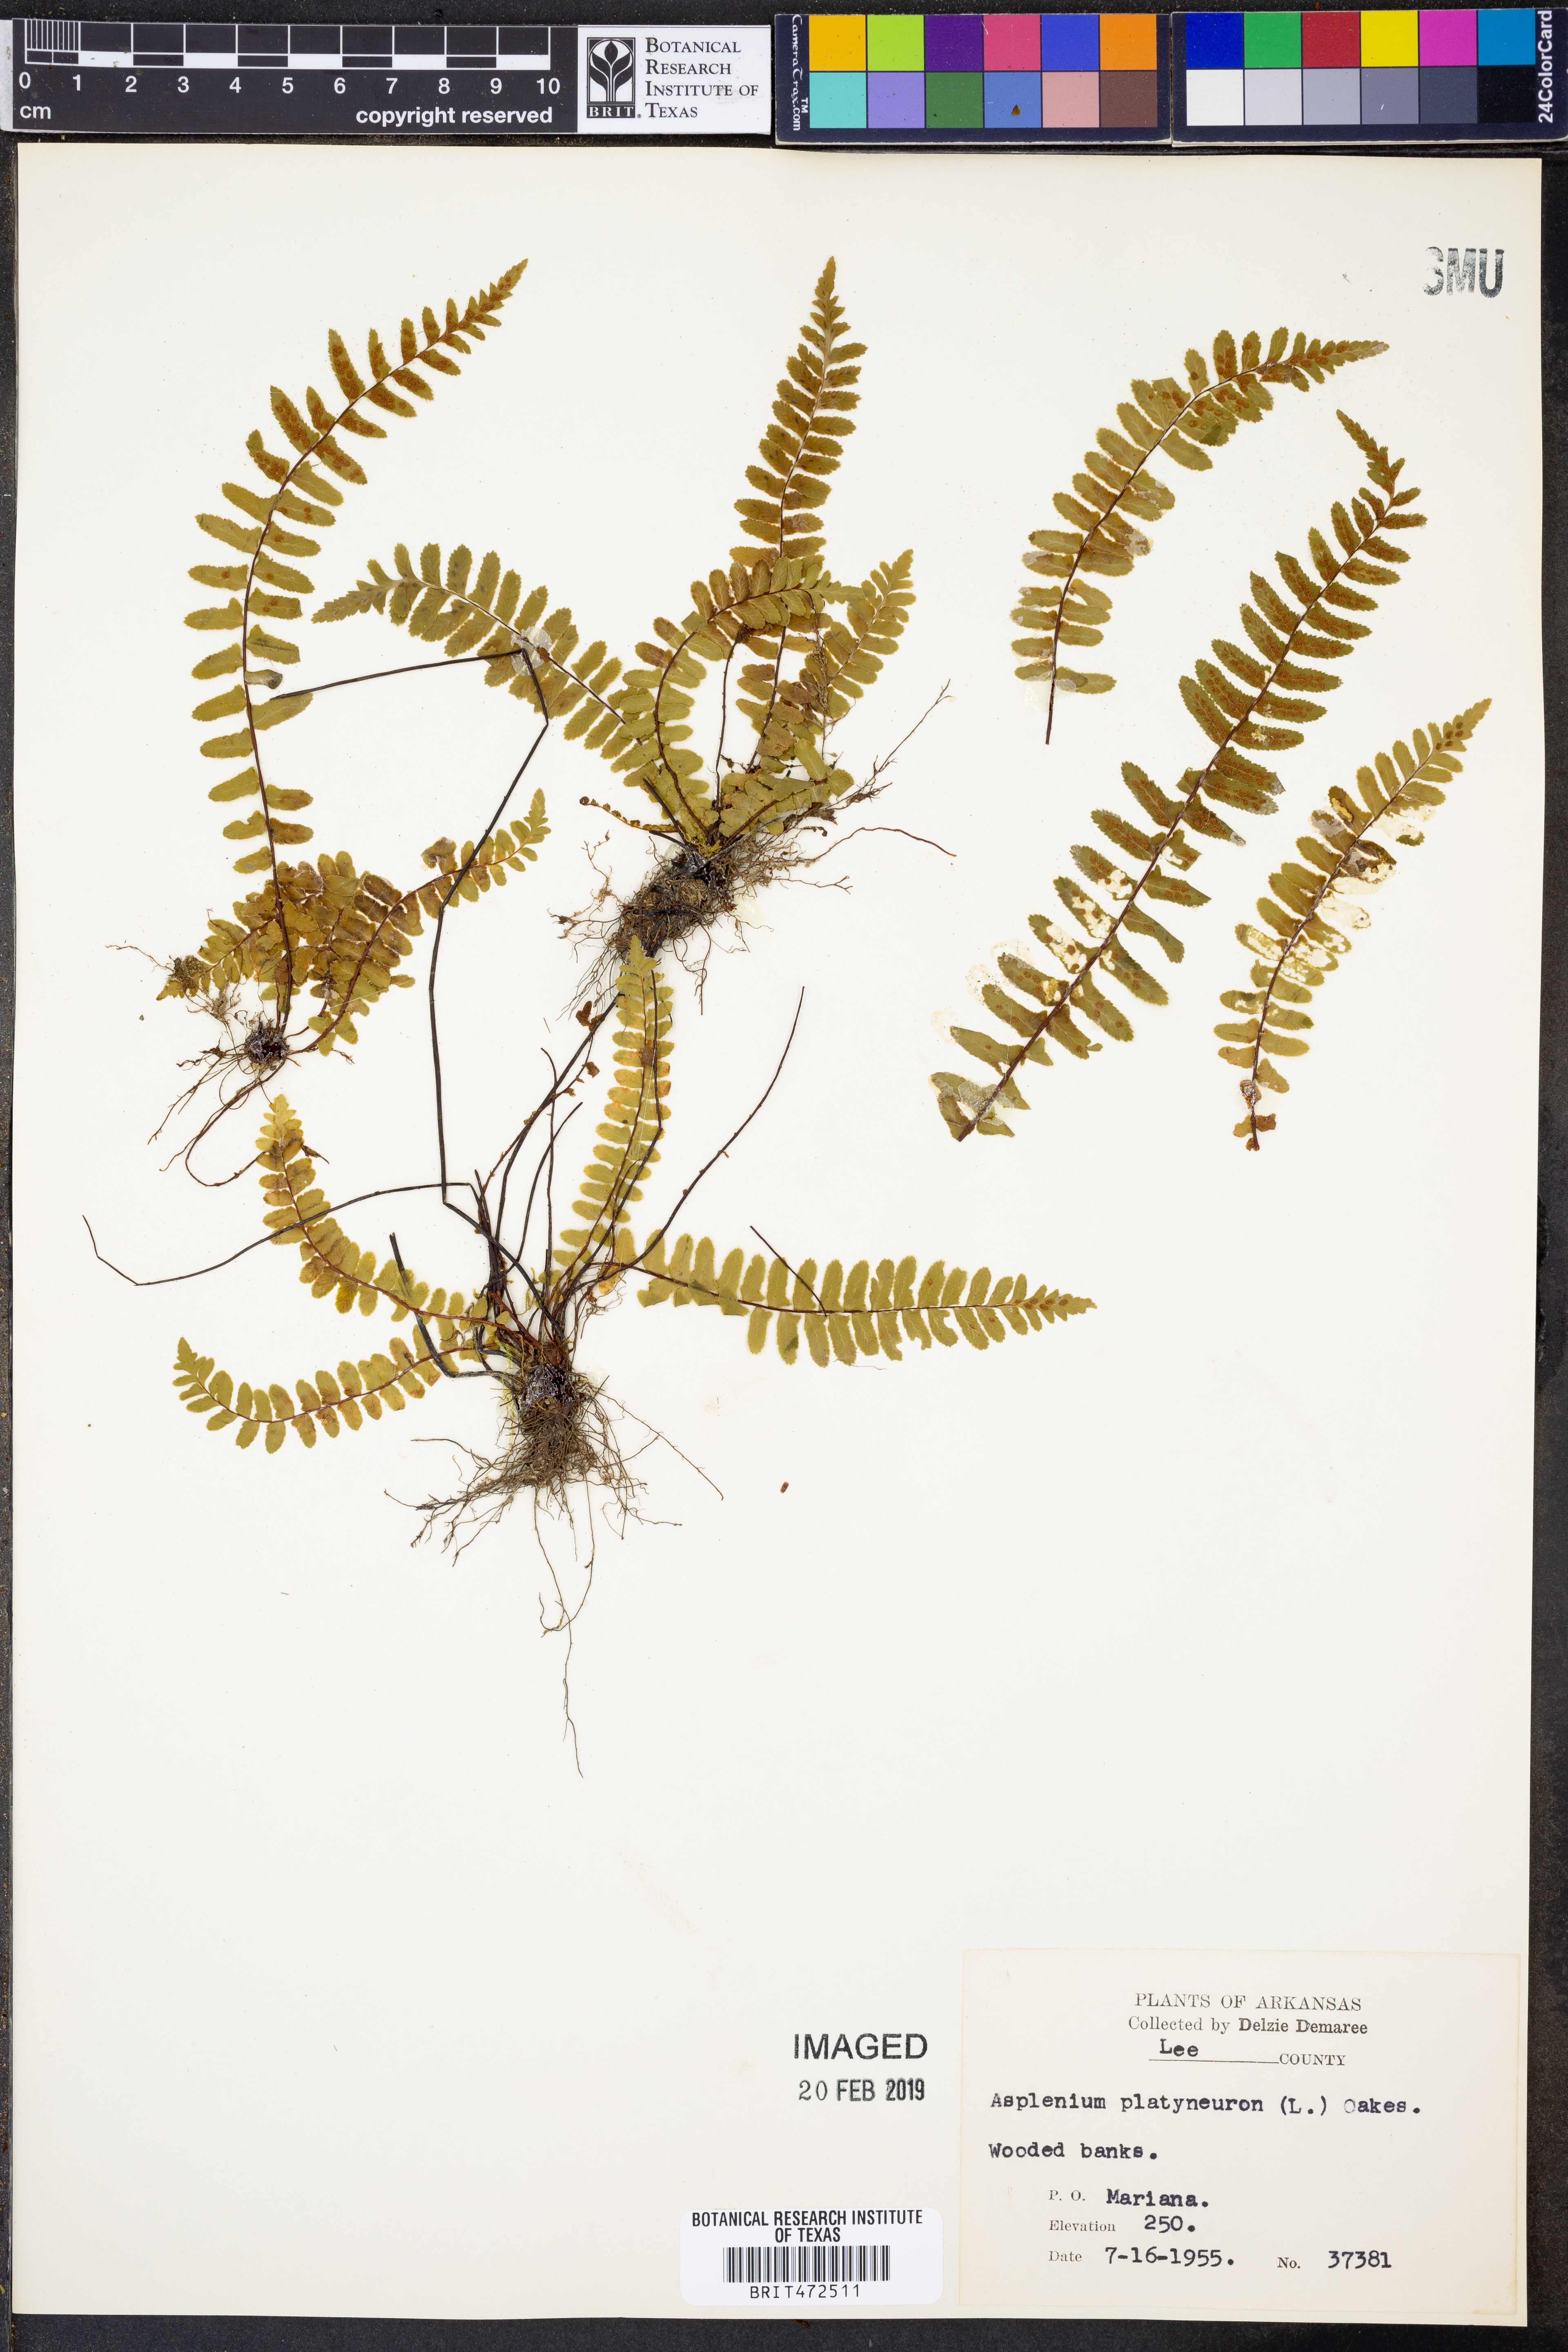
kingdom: Plantae
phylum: Tracheophyta
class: Polypodiopsida
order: Polypodiales
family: Aspleniaceae
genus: Asplenium
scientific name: Asplenium platyneuron
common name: Ebony spleenwort
